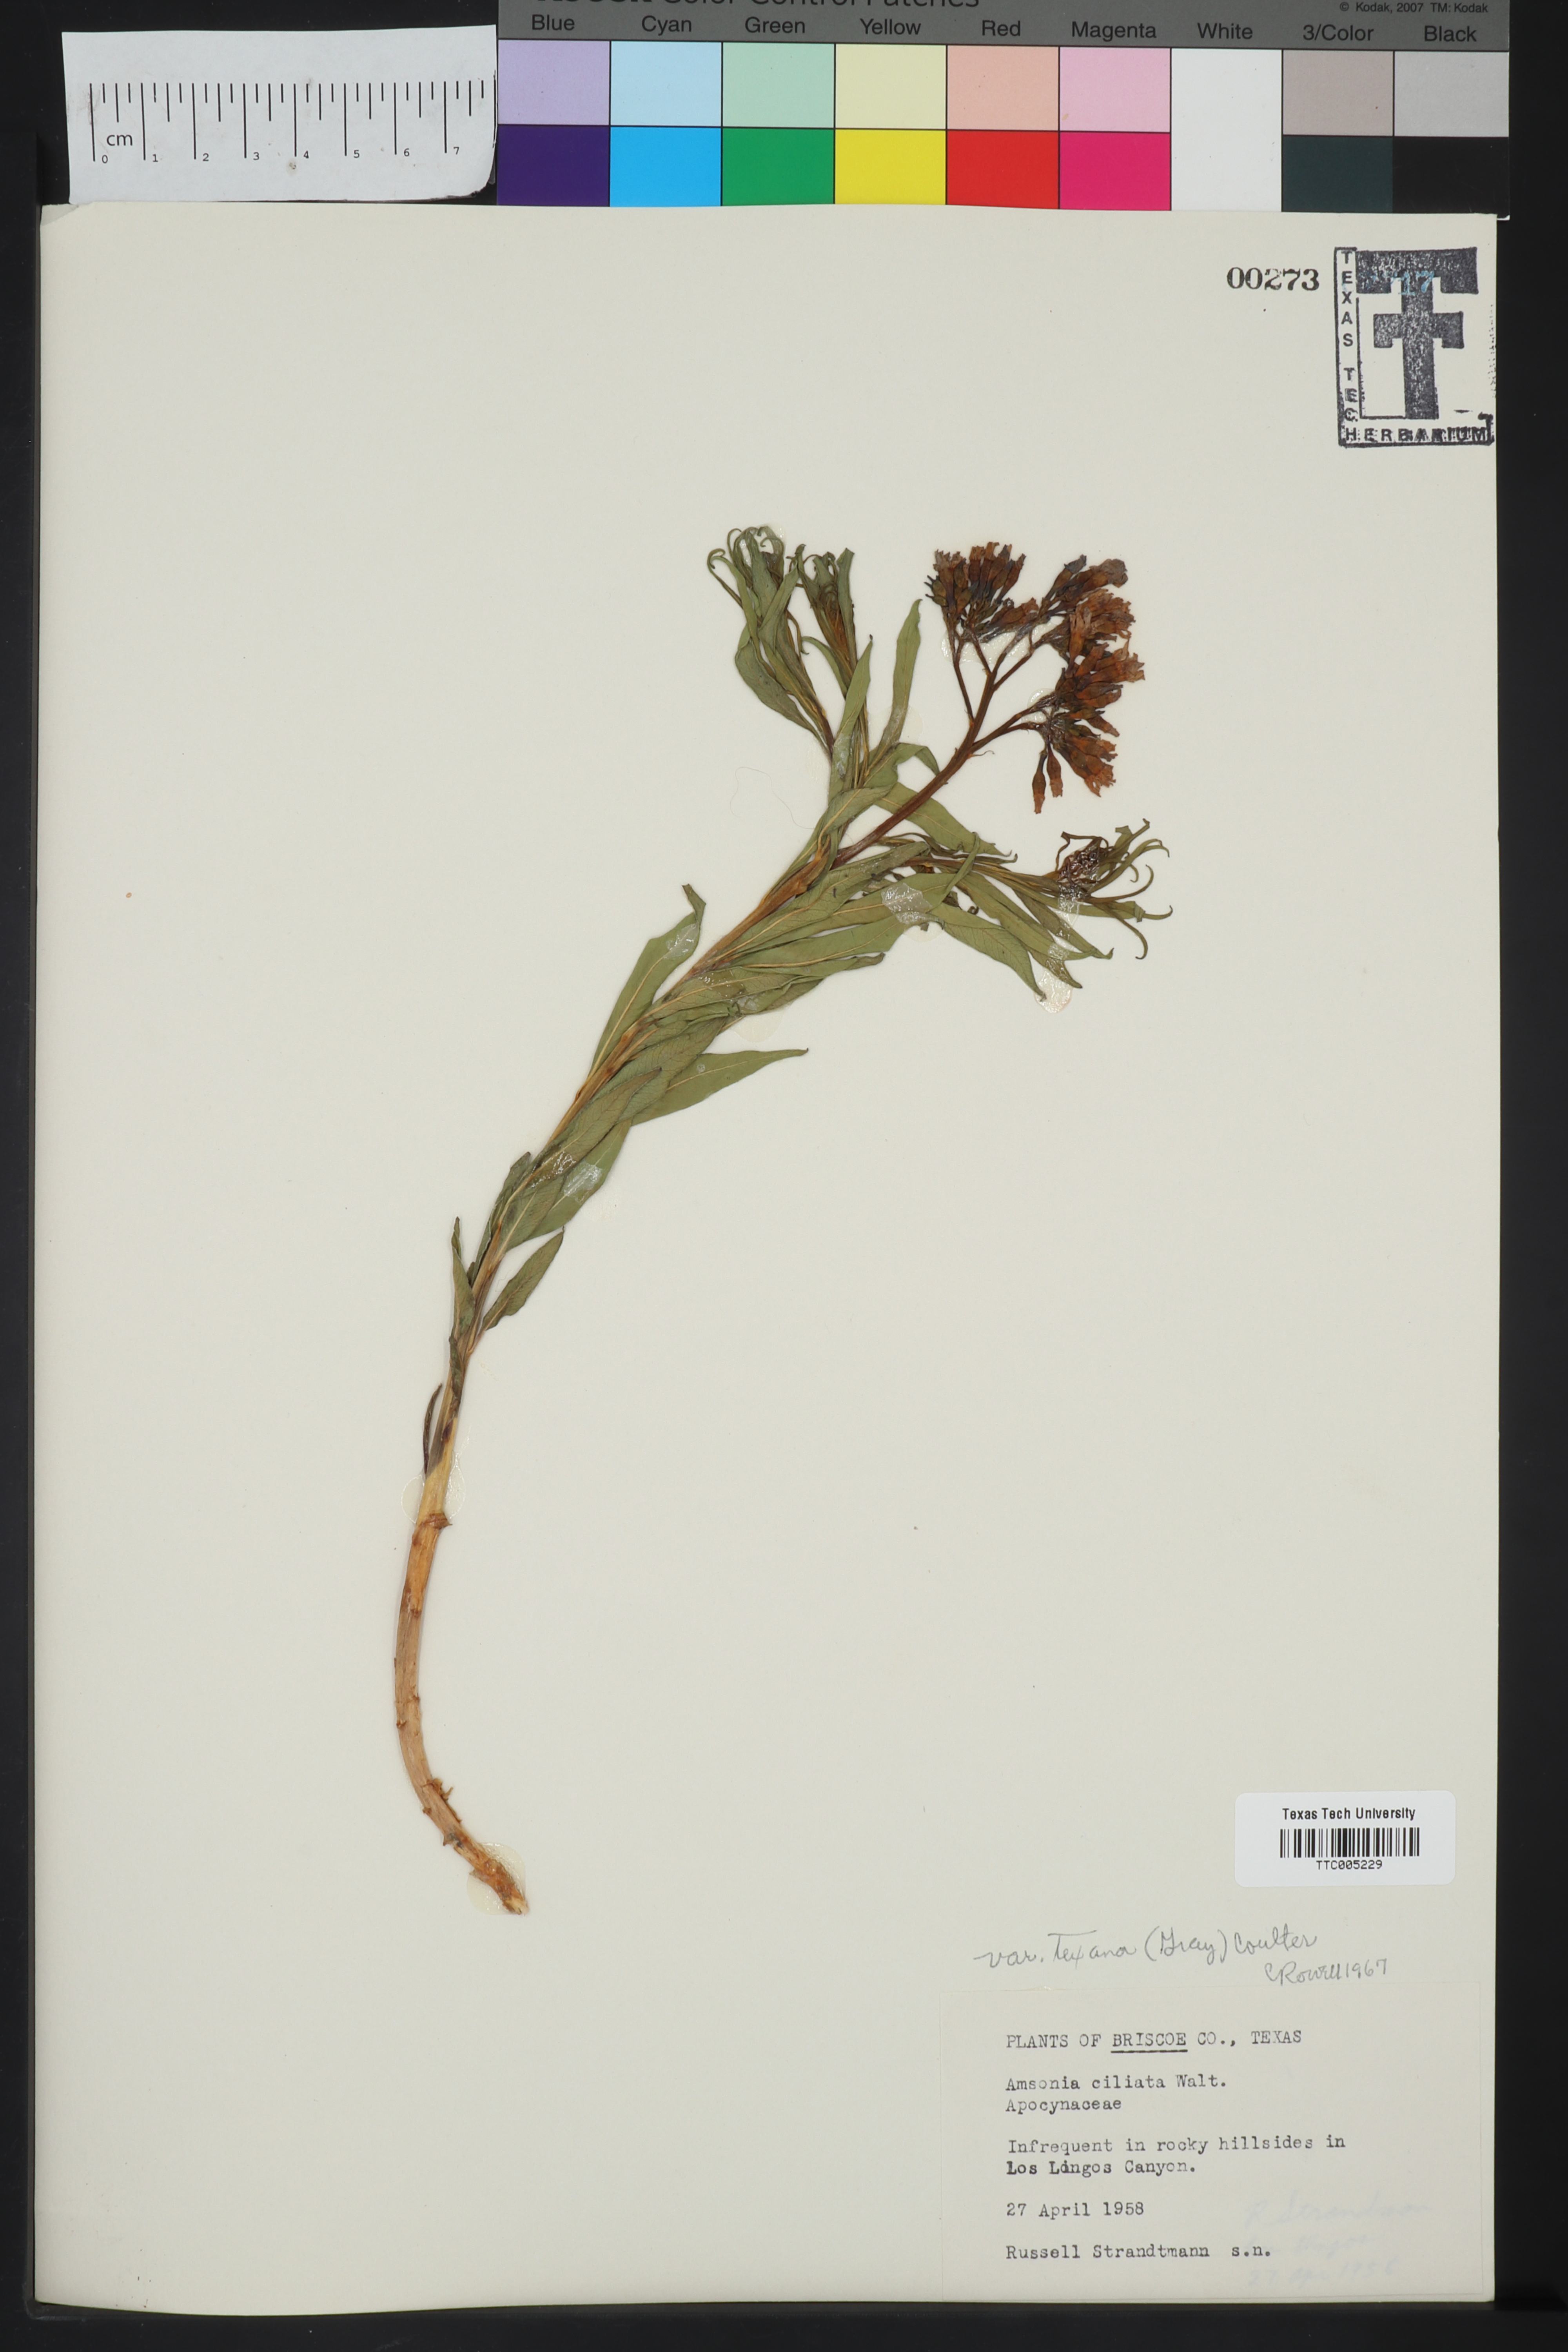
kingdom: Plantae
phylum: Tracheophyta
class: Magnoliopsida
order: Gentianales
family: Apocynaceae
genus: Amsonia
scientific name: Amsonia ciliata
